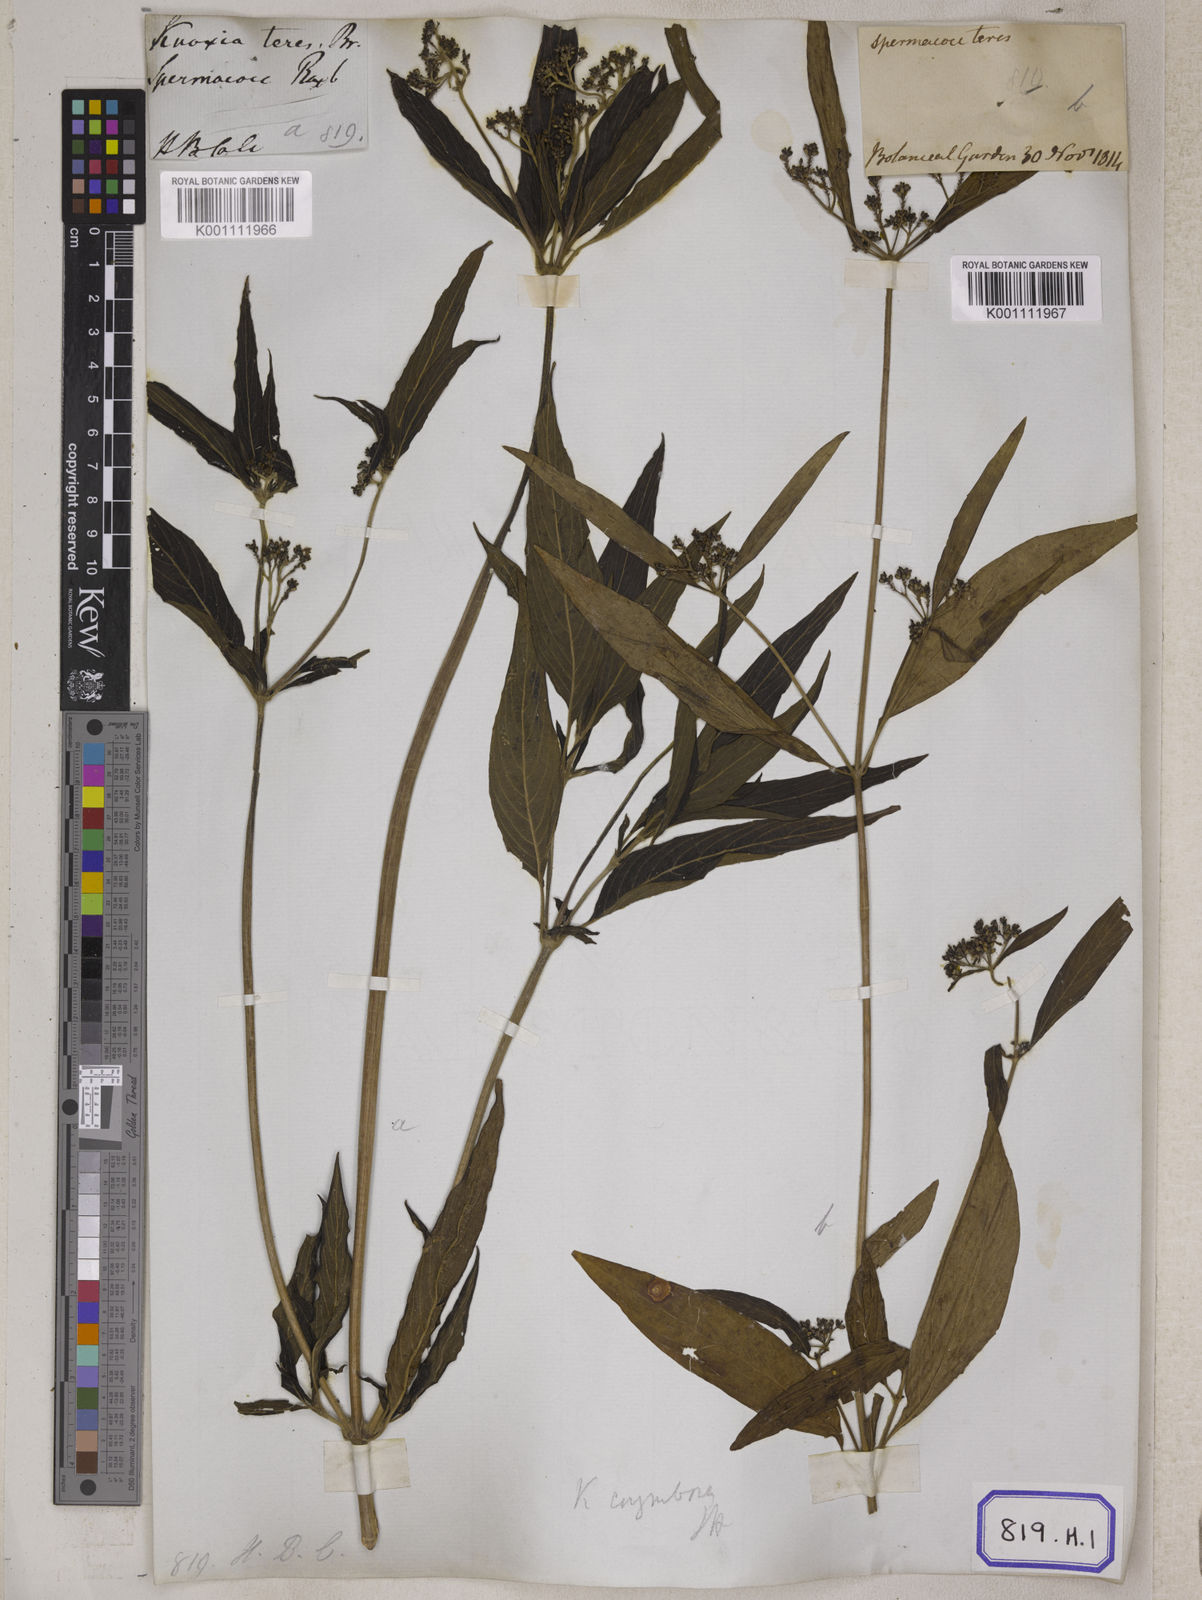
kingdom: Plantae
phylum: Tracheophyta
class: Magnoliopsida
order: Gentianales
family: Rubiaceae
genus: Knoxia
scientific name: Knoxia sumatrensis
